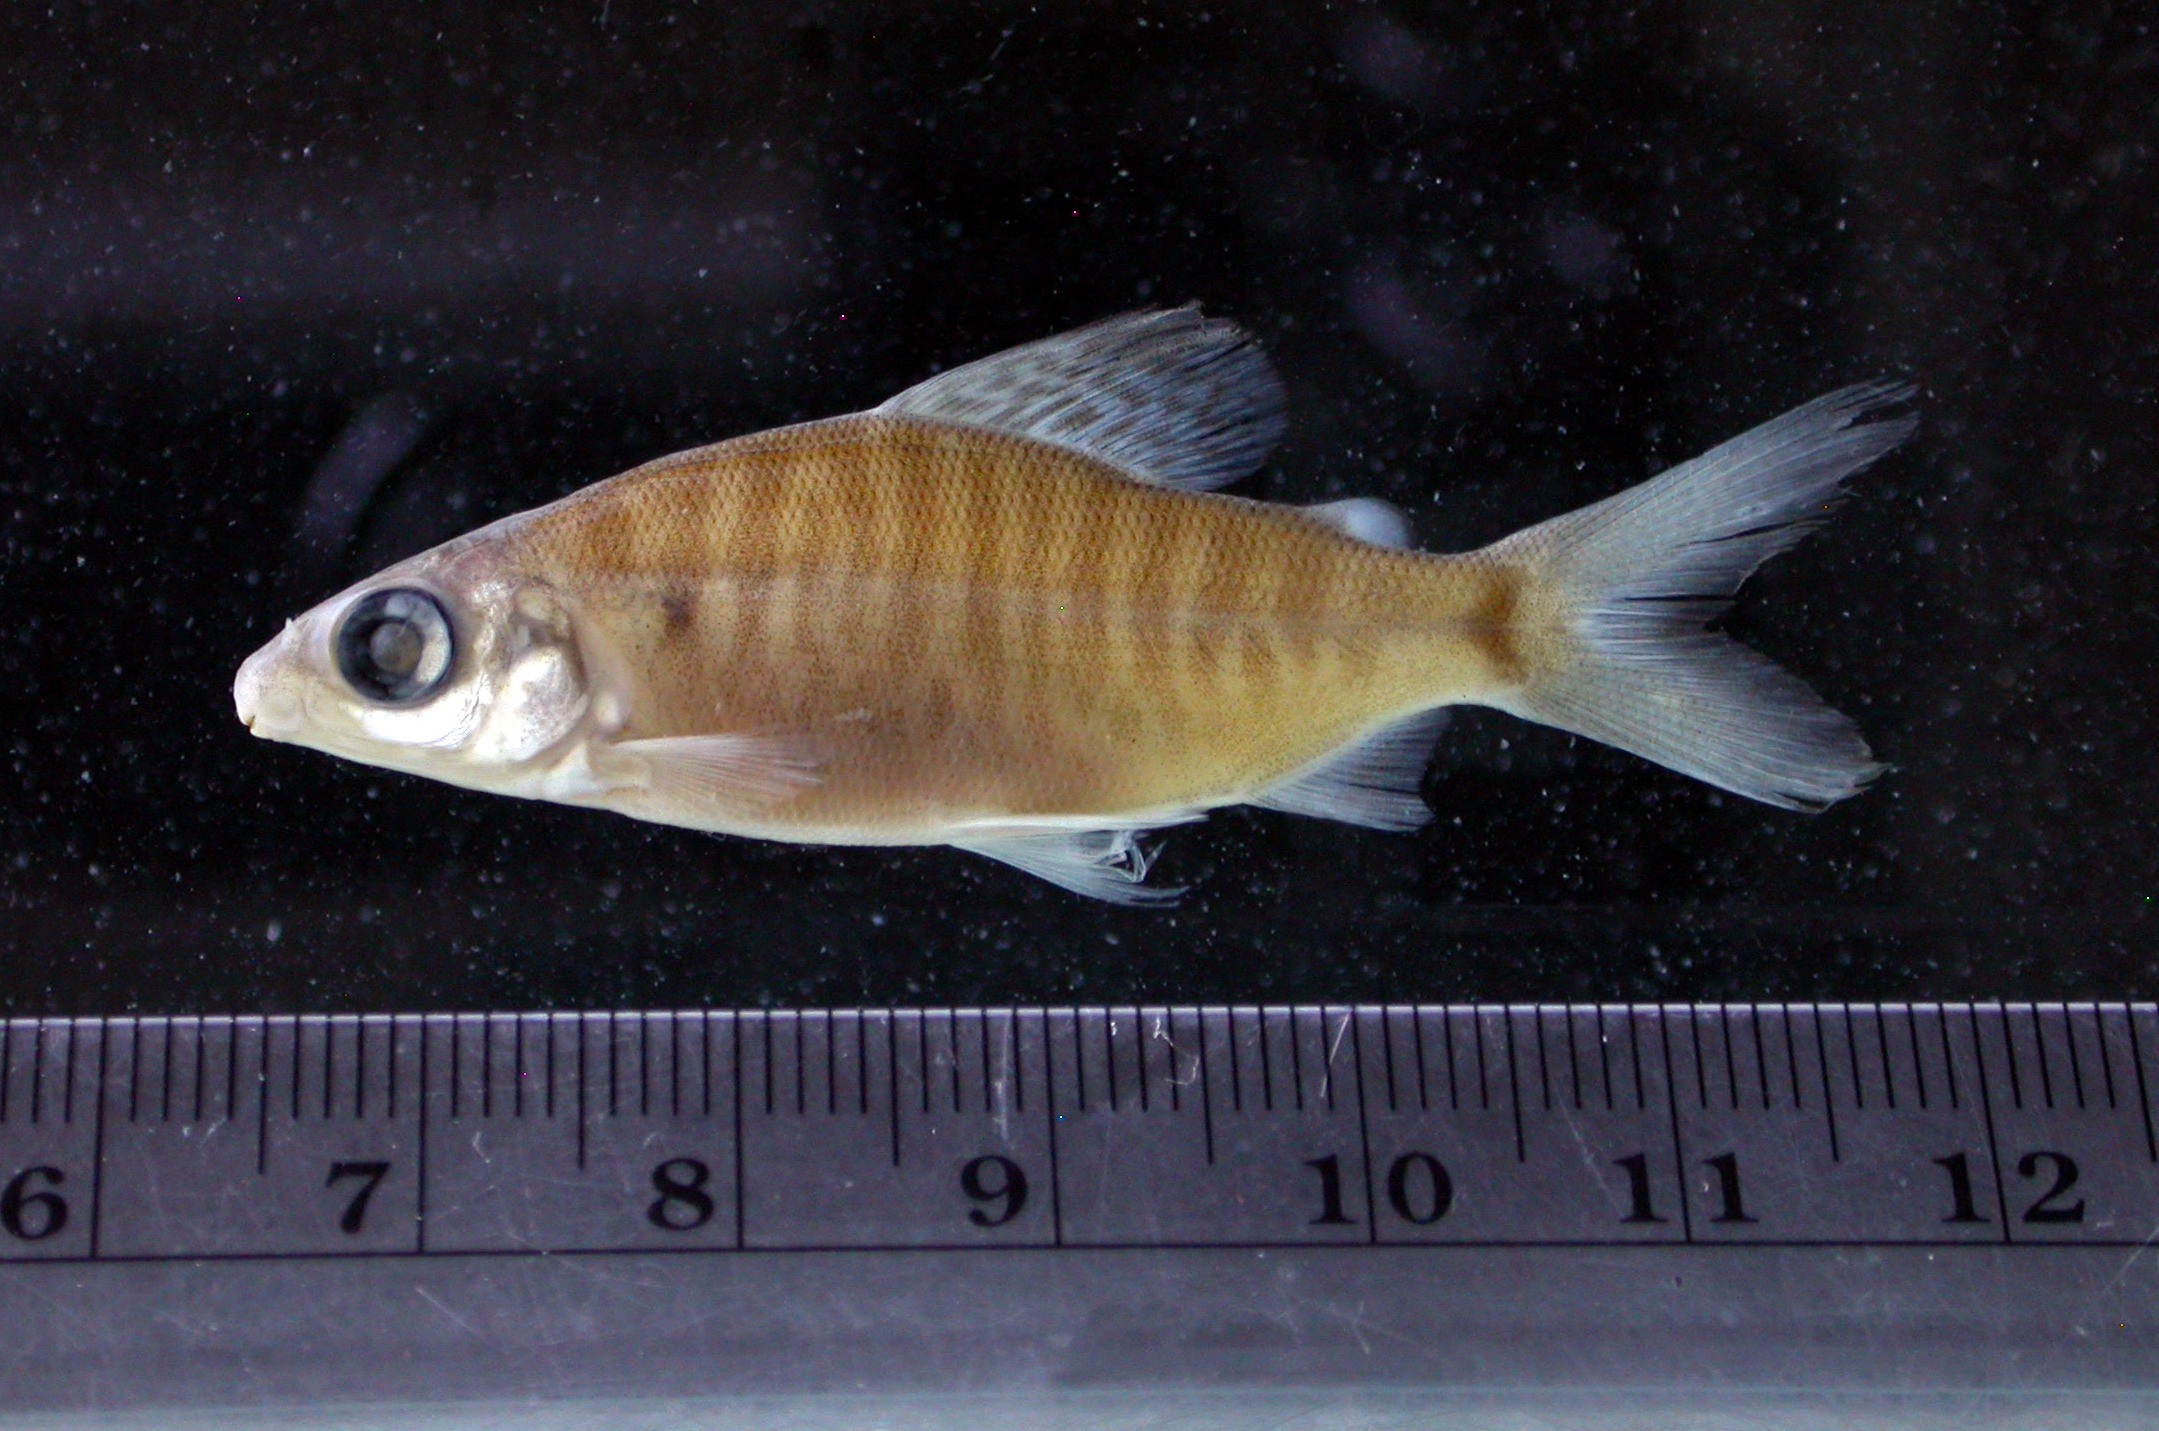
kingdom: Animalia
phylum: Chordata
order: Characiformes
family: Distichodontidae
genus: Distichodus
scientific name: Distichodus schenga
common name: Chessa
